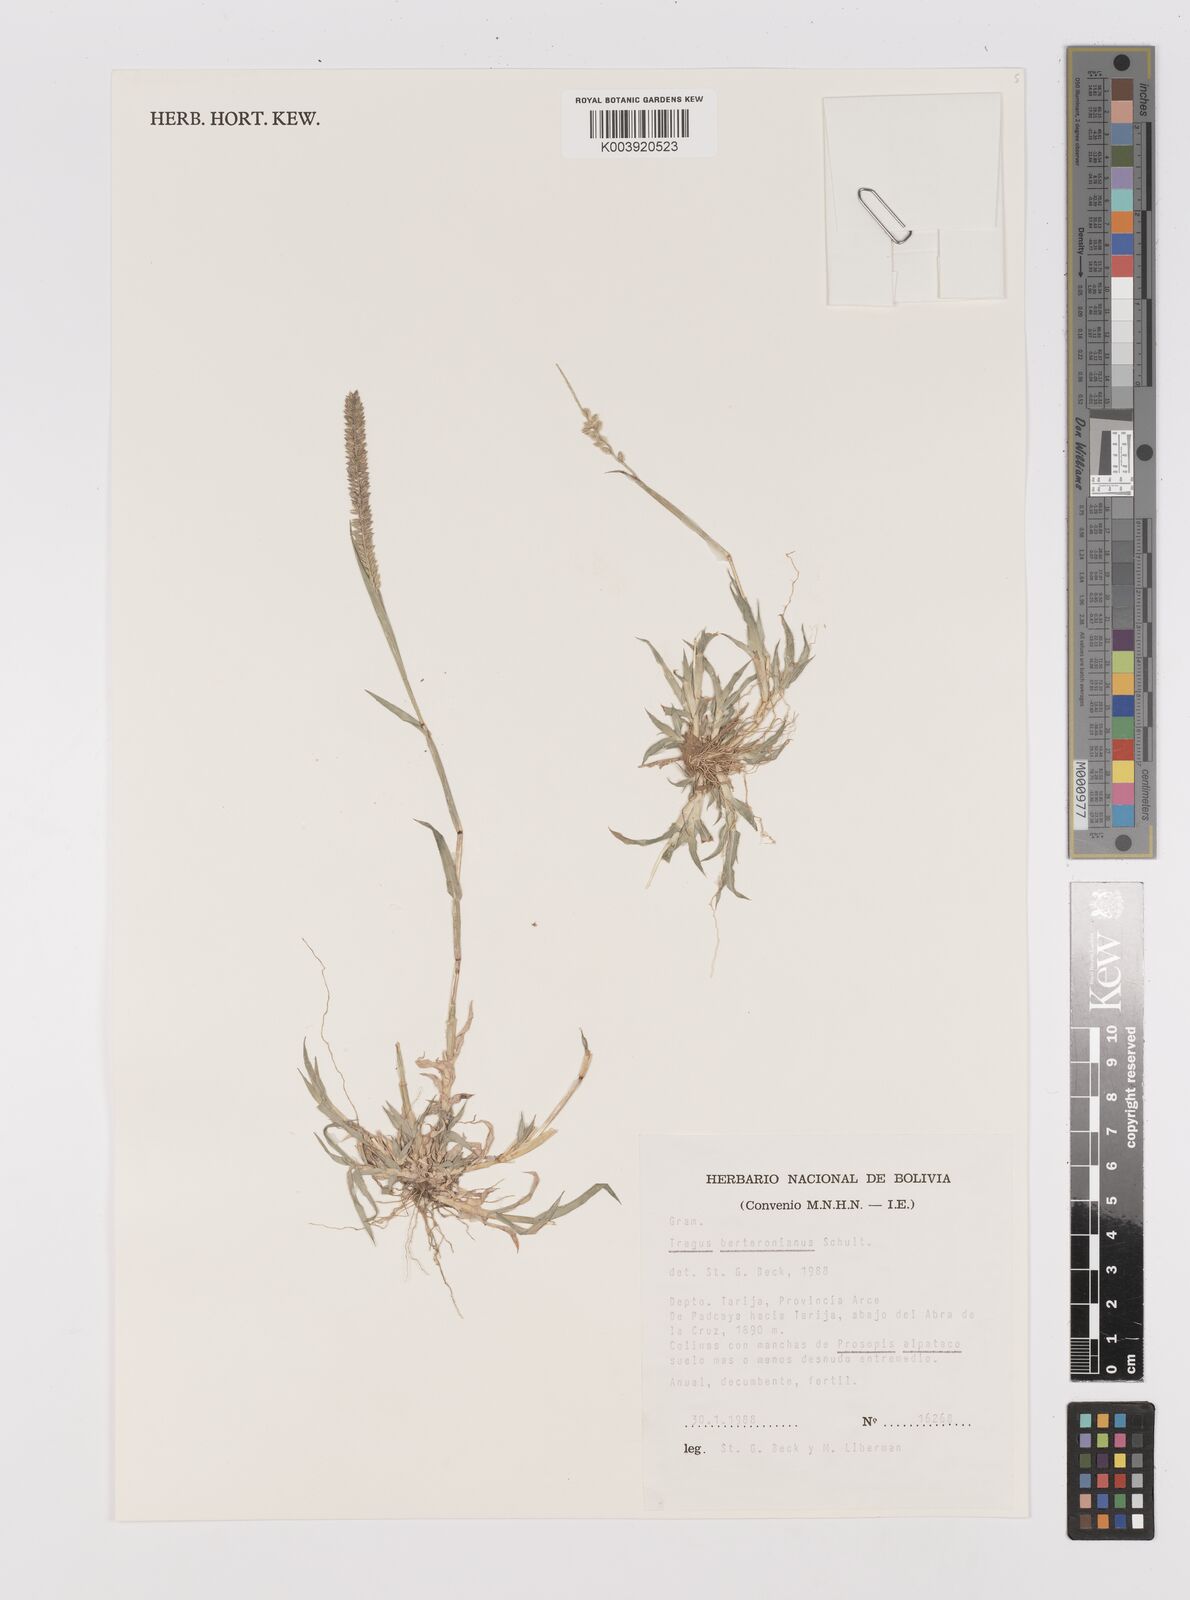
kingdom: Plantae
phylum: Tracheophyta
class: Liliopsida
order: Poales
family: Poaceae
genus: Tragus
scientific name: Tragus berteronianus
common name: African bur-grass
